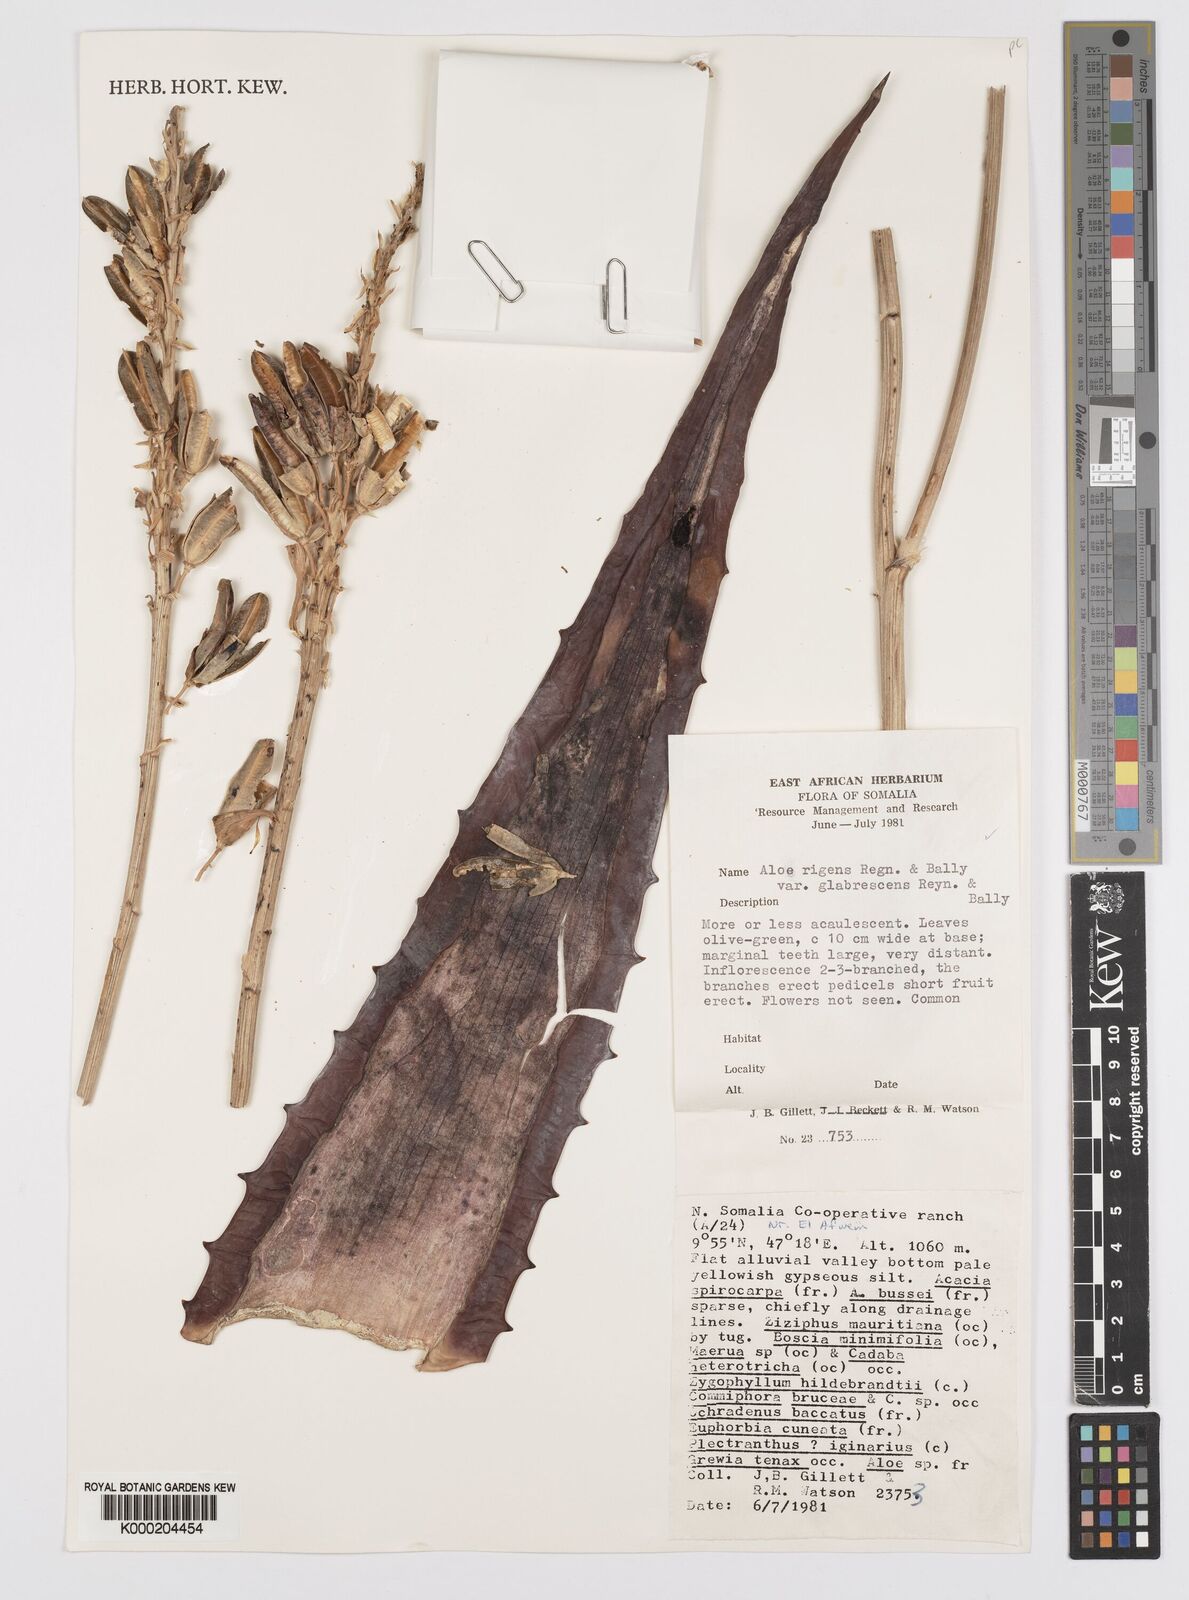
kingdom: Plantae
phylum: Tracheophyta
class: Liliopsida
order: Asparagales
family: Asphodelaceae
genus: Aloe
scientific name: Aloe glabrescens
